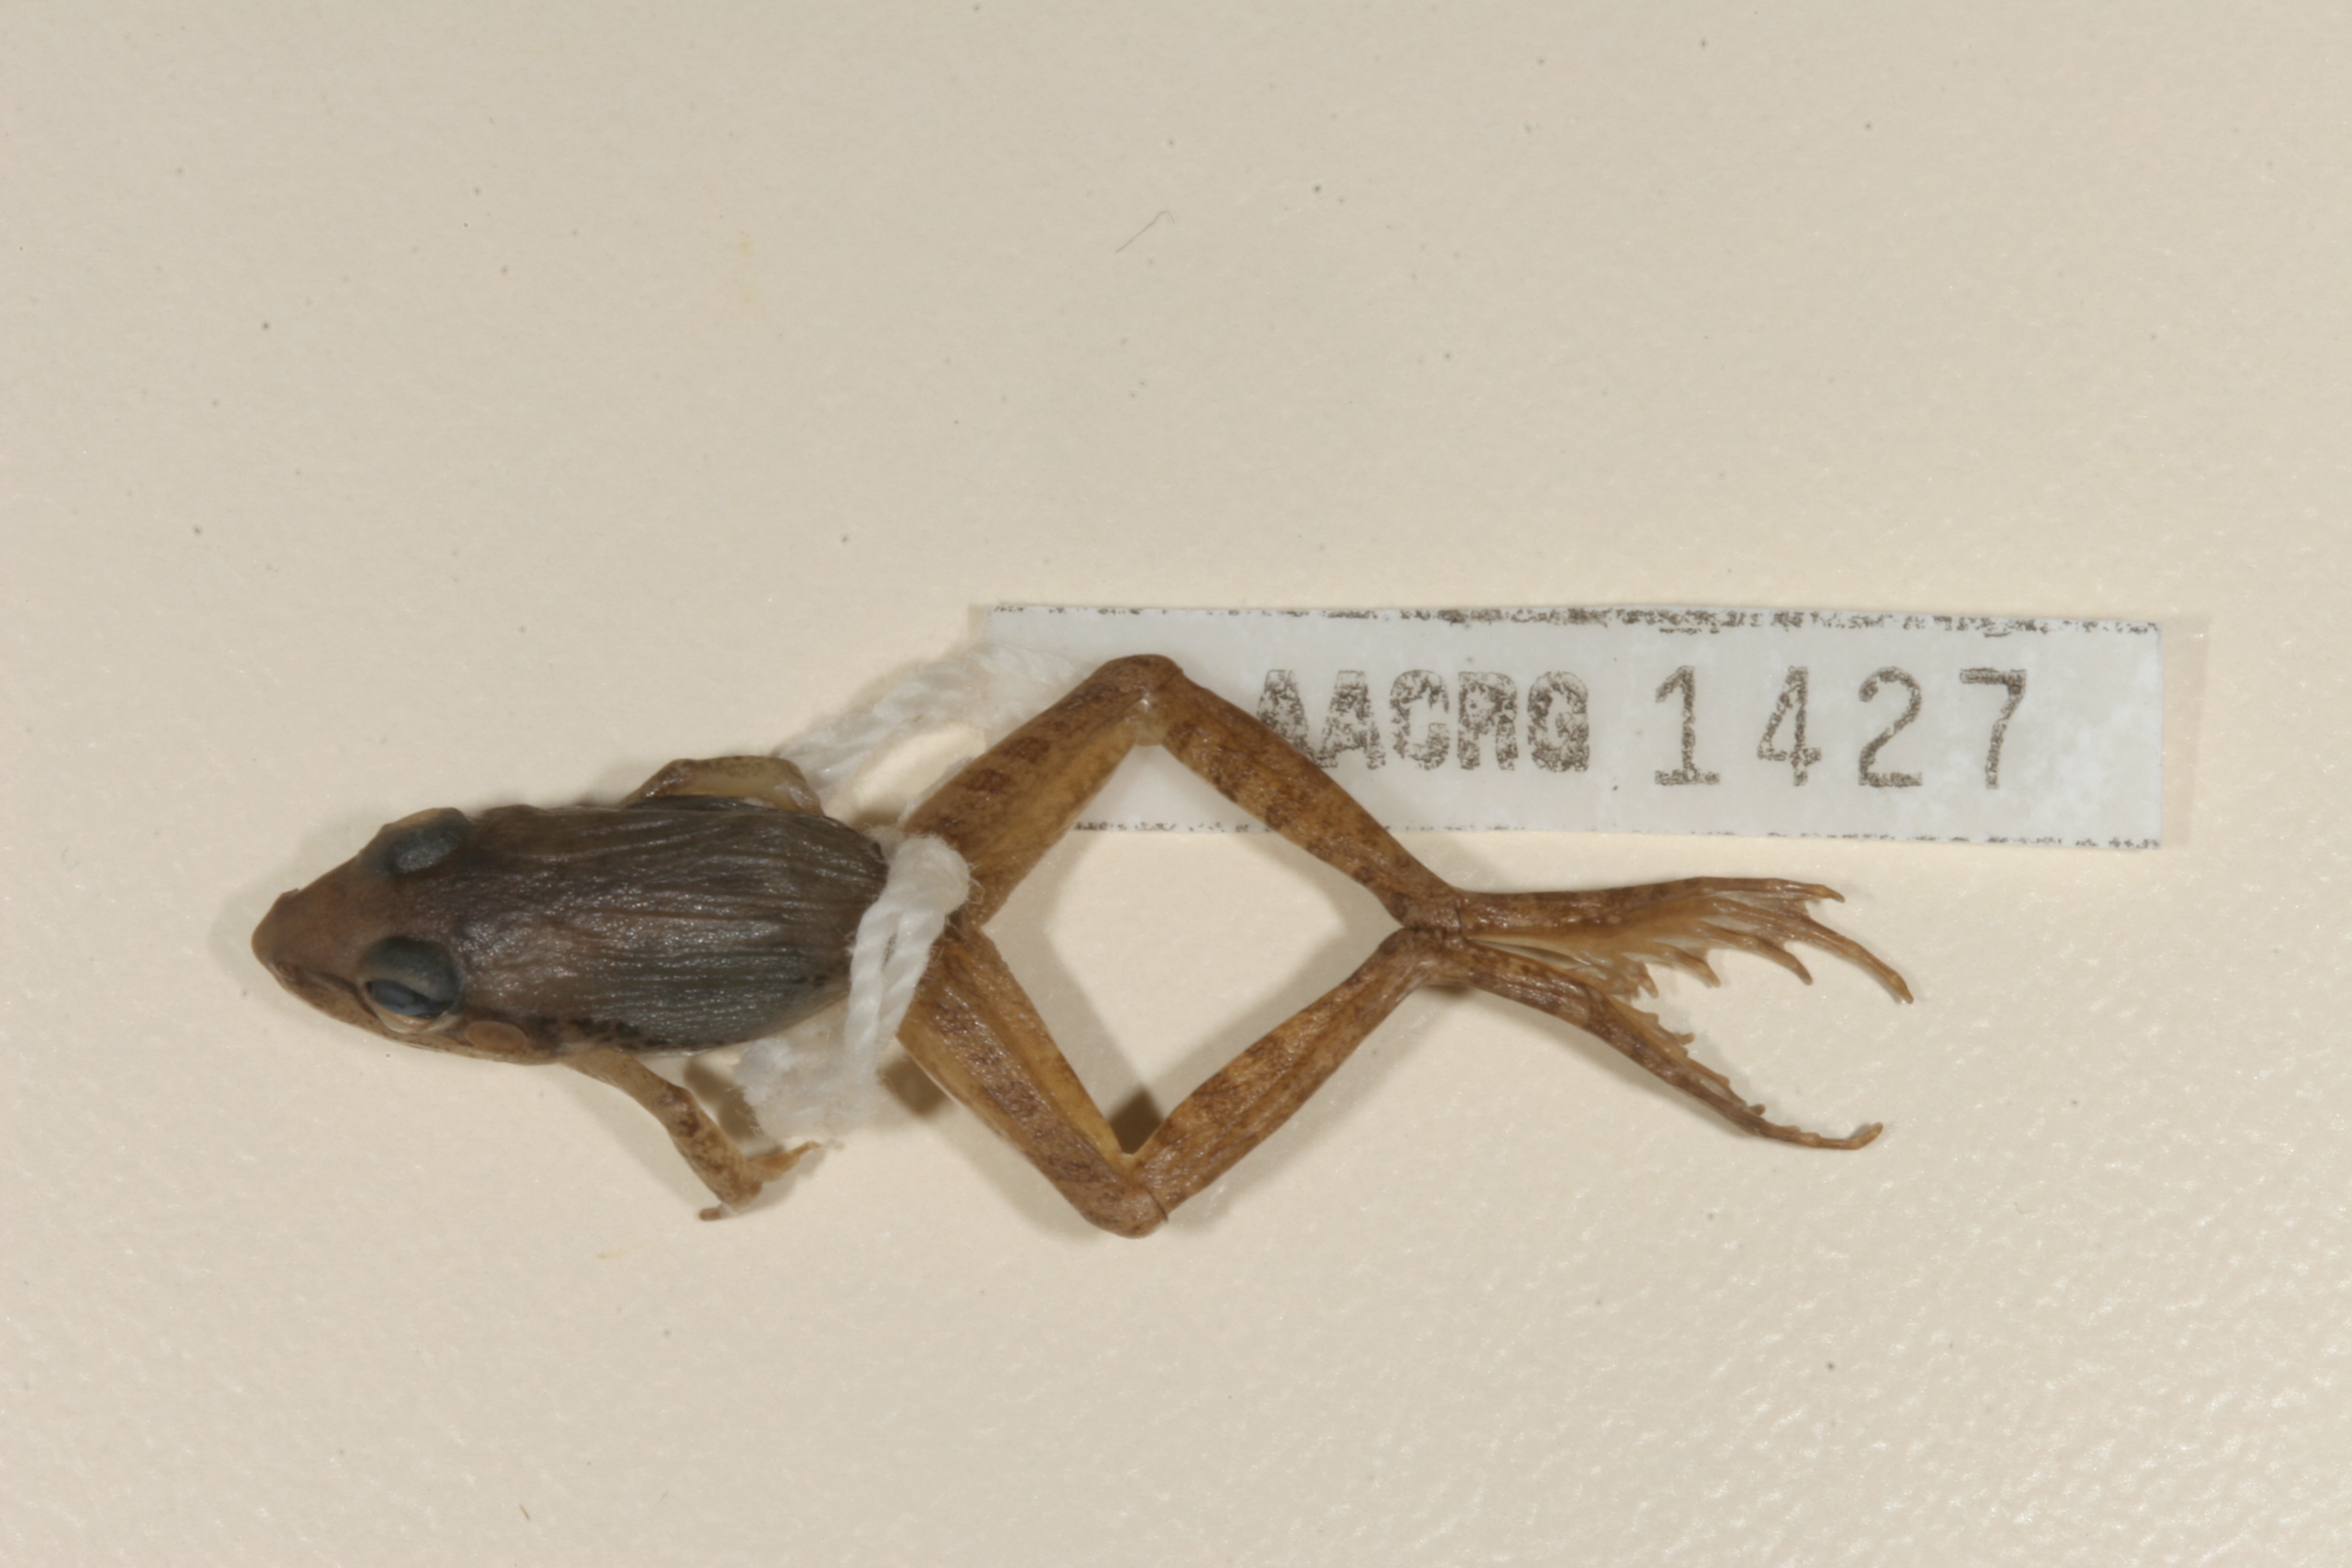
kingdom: Animalia
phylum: Chordata
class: Amphibia
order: Anura
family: Ptychadenidae
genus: Ptychadena
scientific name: Ptychadena anchietae
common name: Anchieta's ridged frog
